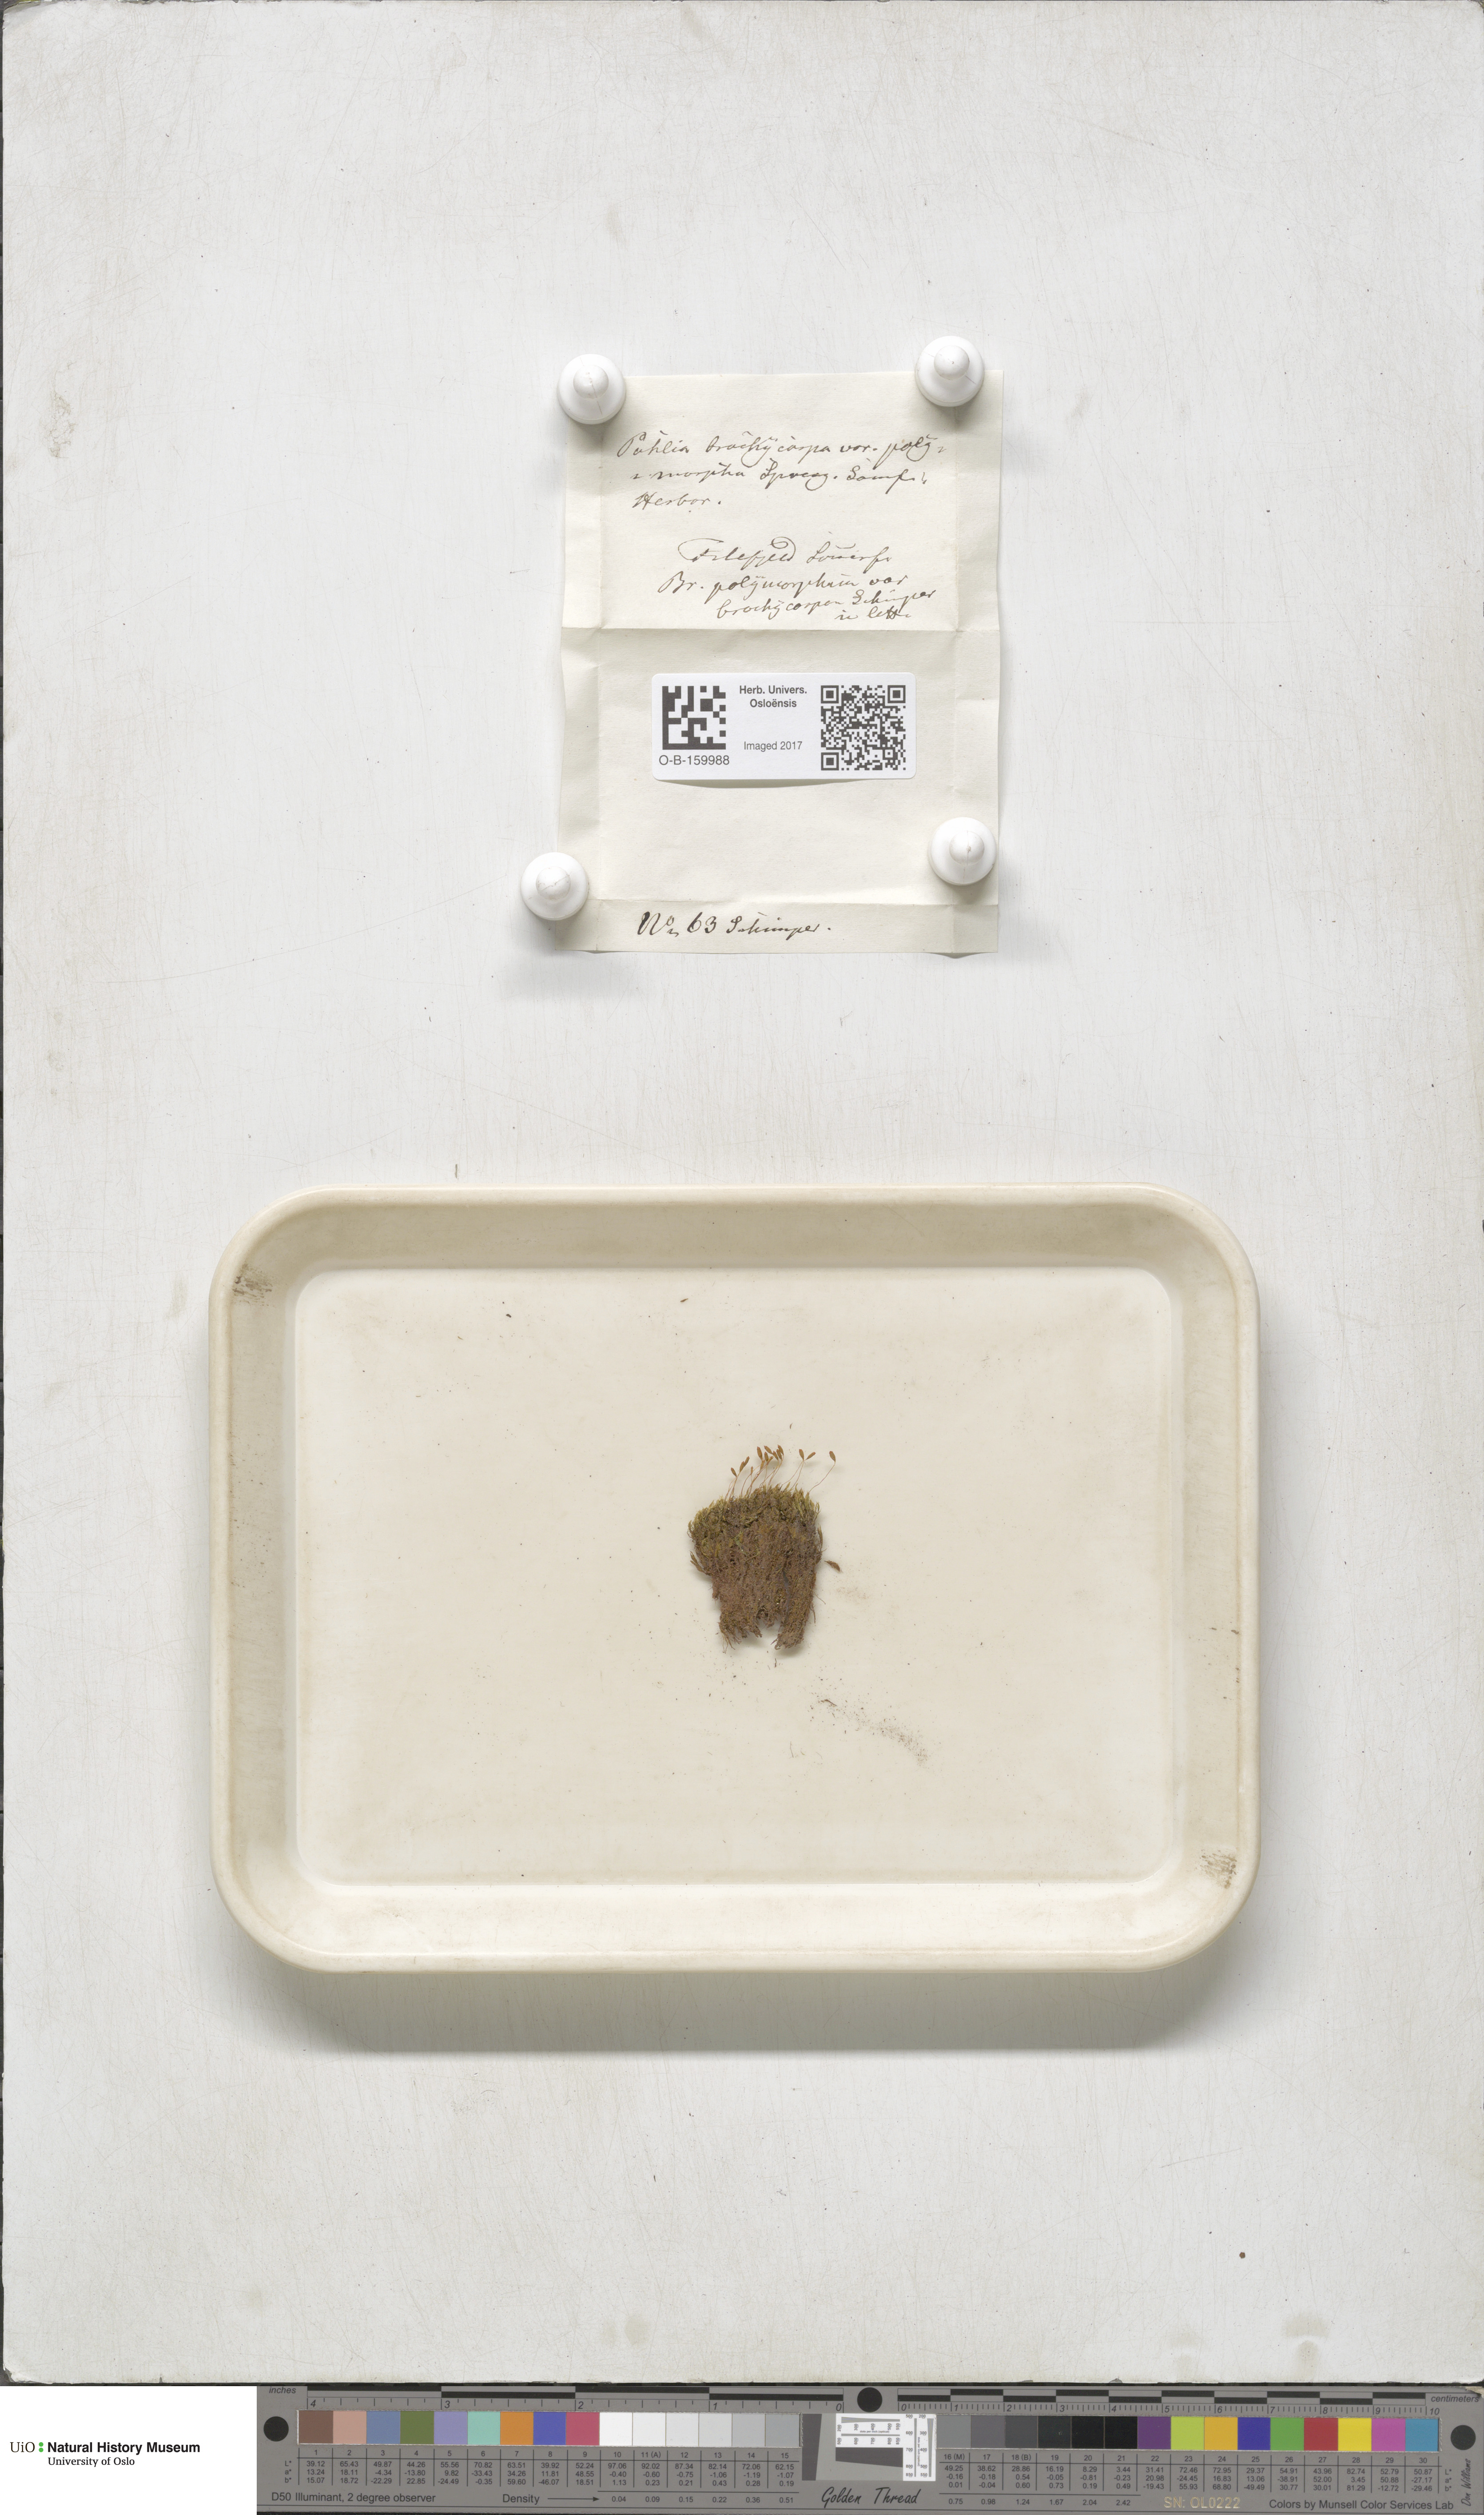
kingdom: Plantae
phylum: Bryophyta
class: Bryopsida
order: Bryales
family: Mniaceae
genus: Pohlia
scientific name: Pohlia elongata
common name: Long-fruited thread-moss
